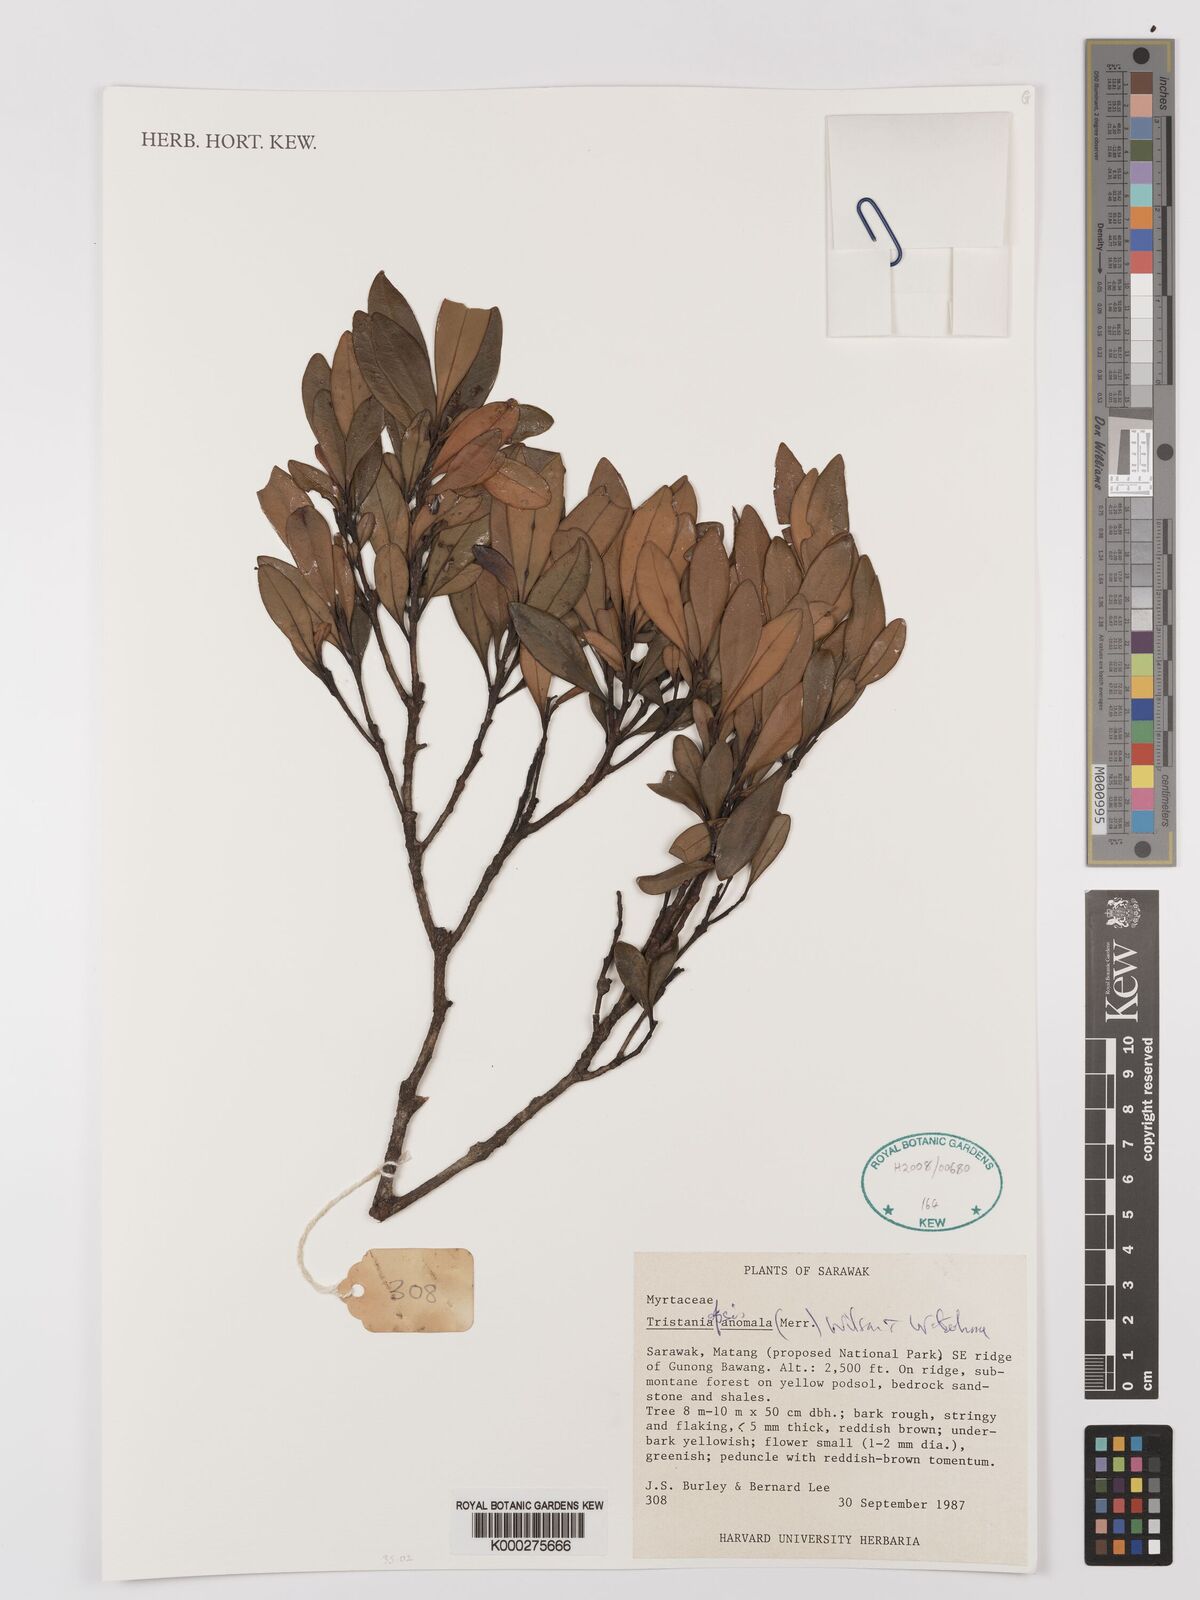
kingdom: Plantae
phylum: Tracheophyta
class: Magnoliopsida
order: Myrtales
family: Myrtaceae
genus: Tristaniopsis
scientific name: Tristaniopsis anomala
